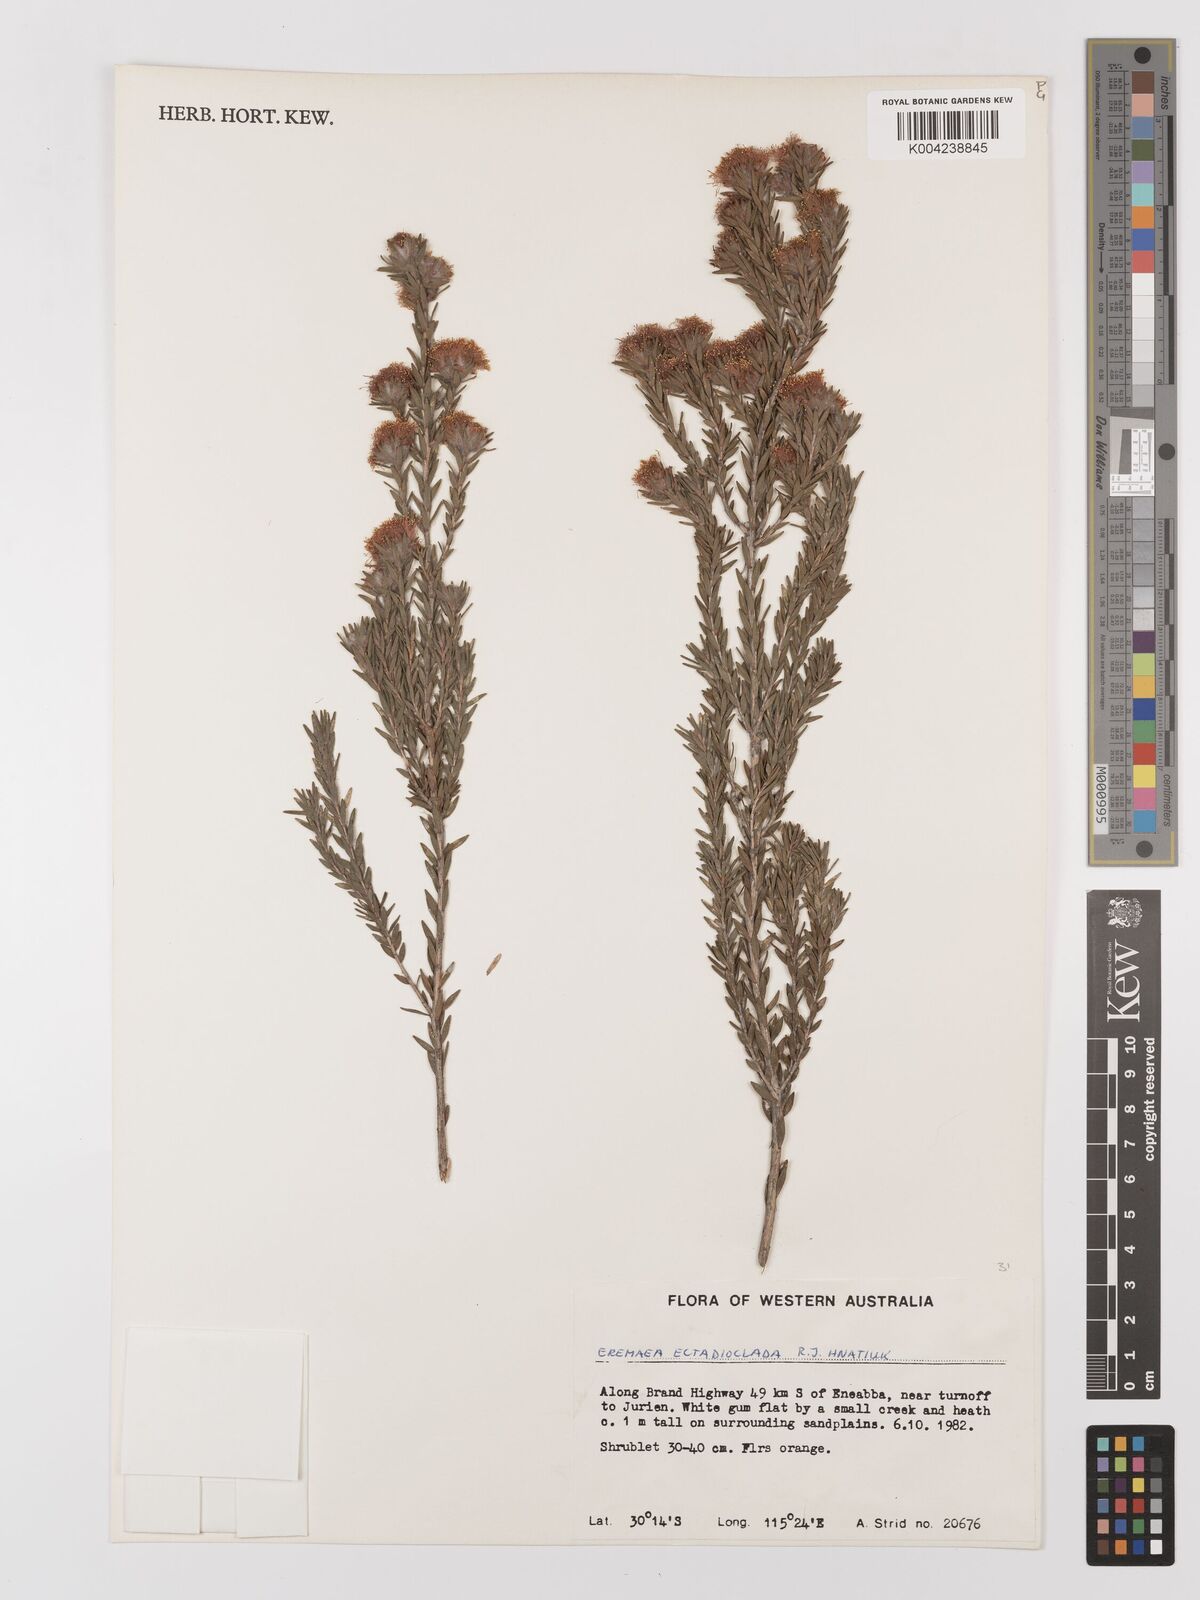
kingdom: Plantae
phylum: Tracheophyta
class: Magnoliopsida
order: Myrtales
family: Myrtaceae
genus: Melaleuca
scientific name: Melaleuca ectadioclada
